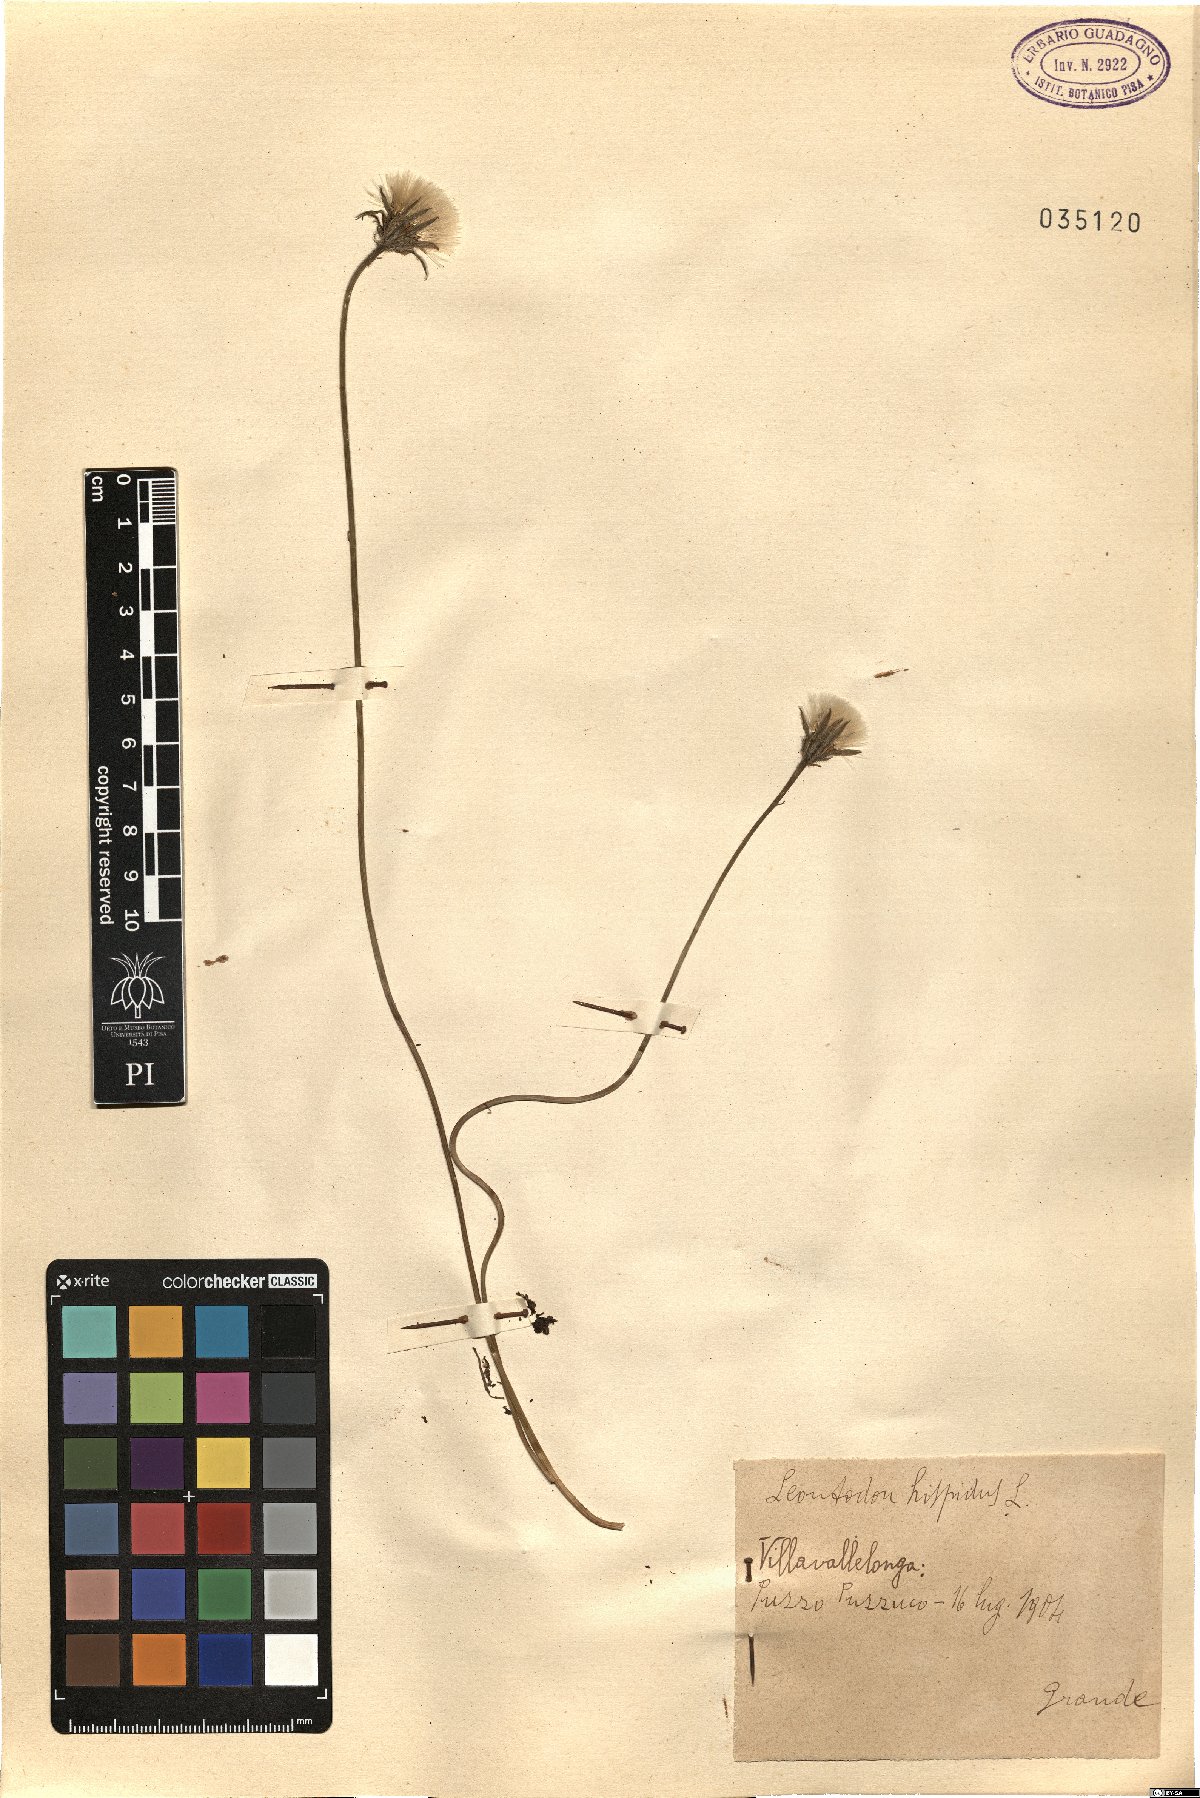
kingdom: Plantae
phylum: Tracheophyta
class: Magnoliopsida
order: Asterales
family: Asteraceae
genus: Leontodon
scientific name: Leontodon hispidus
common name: Rough hawkbit
